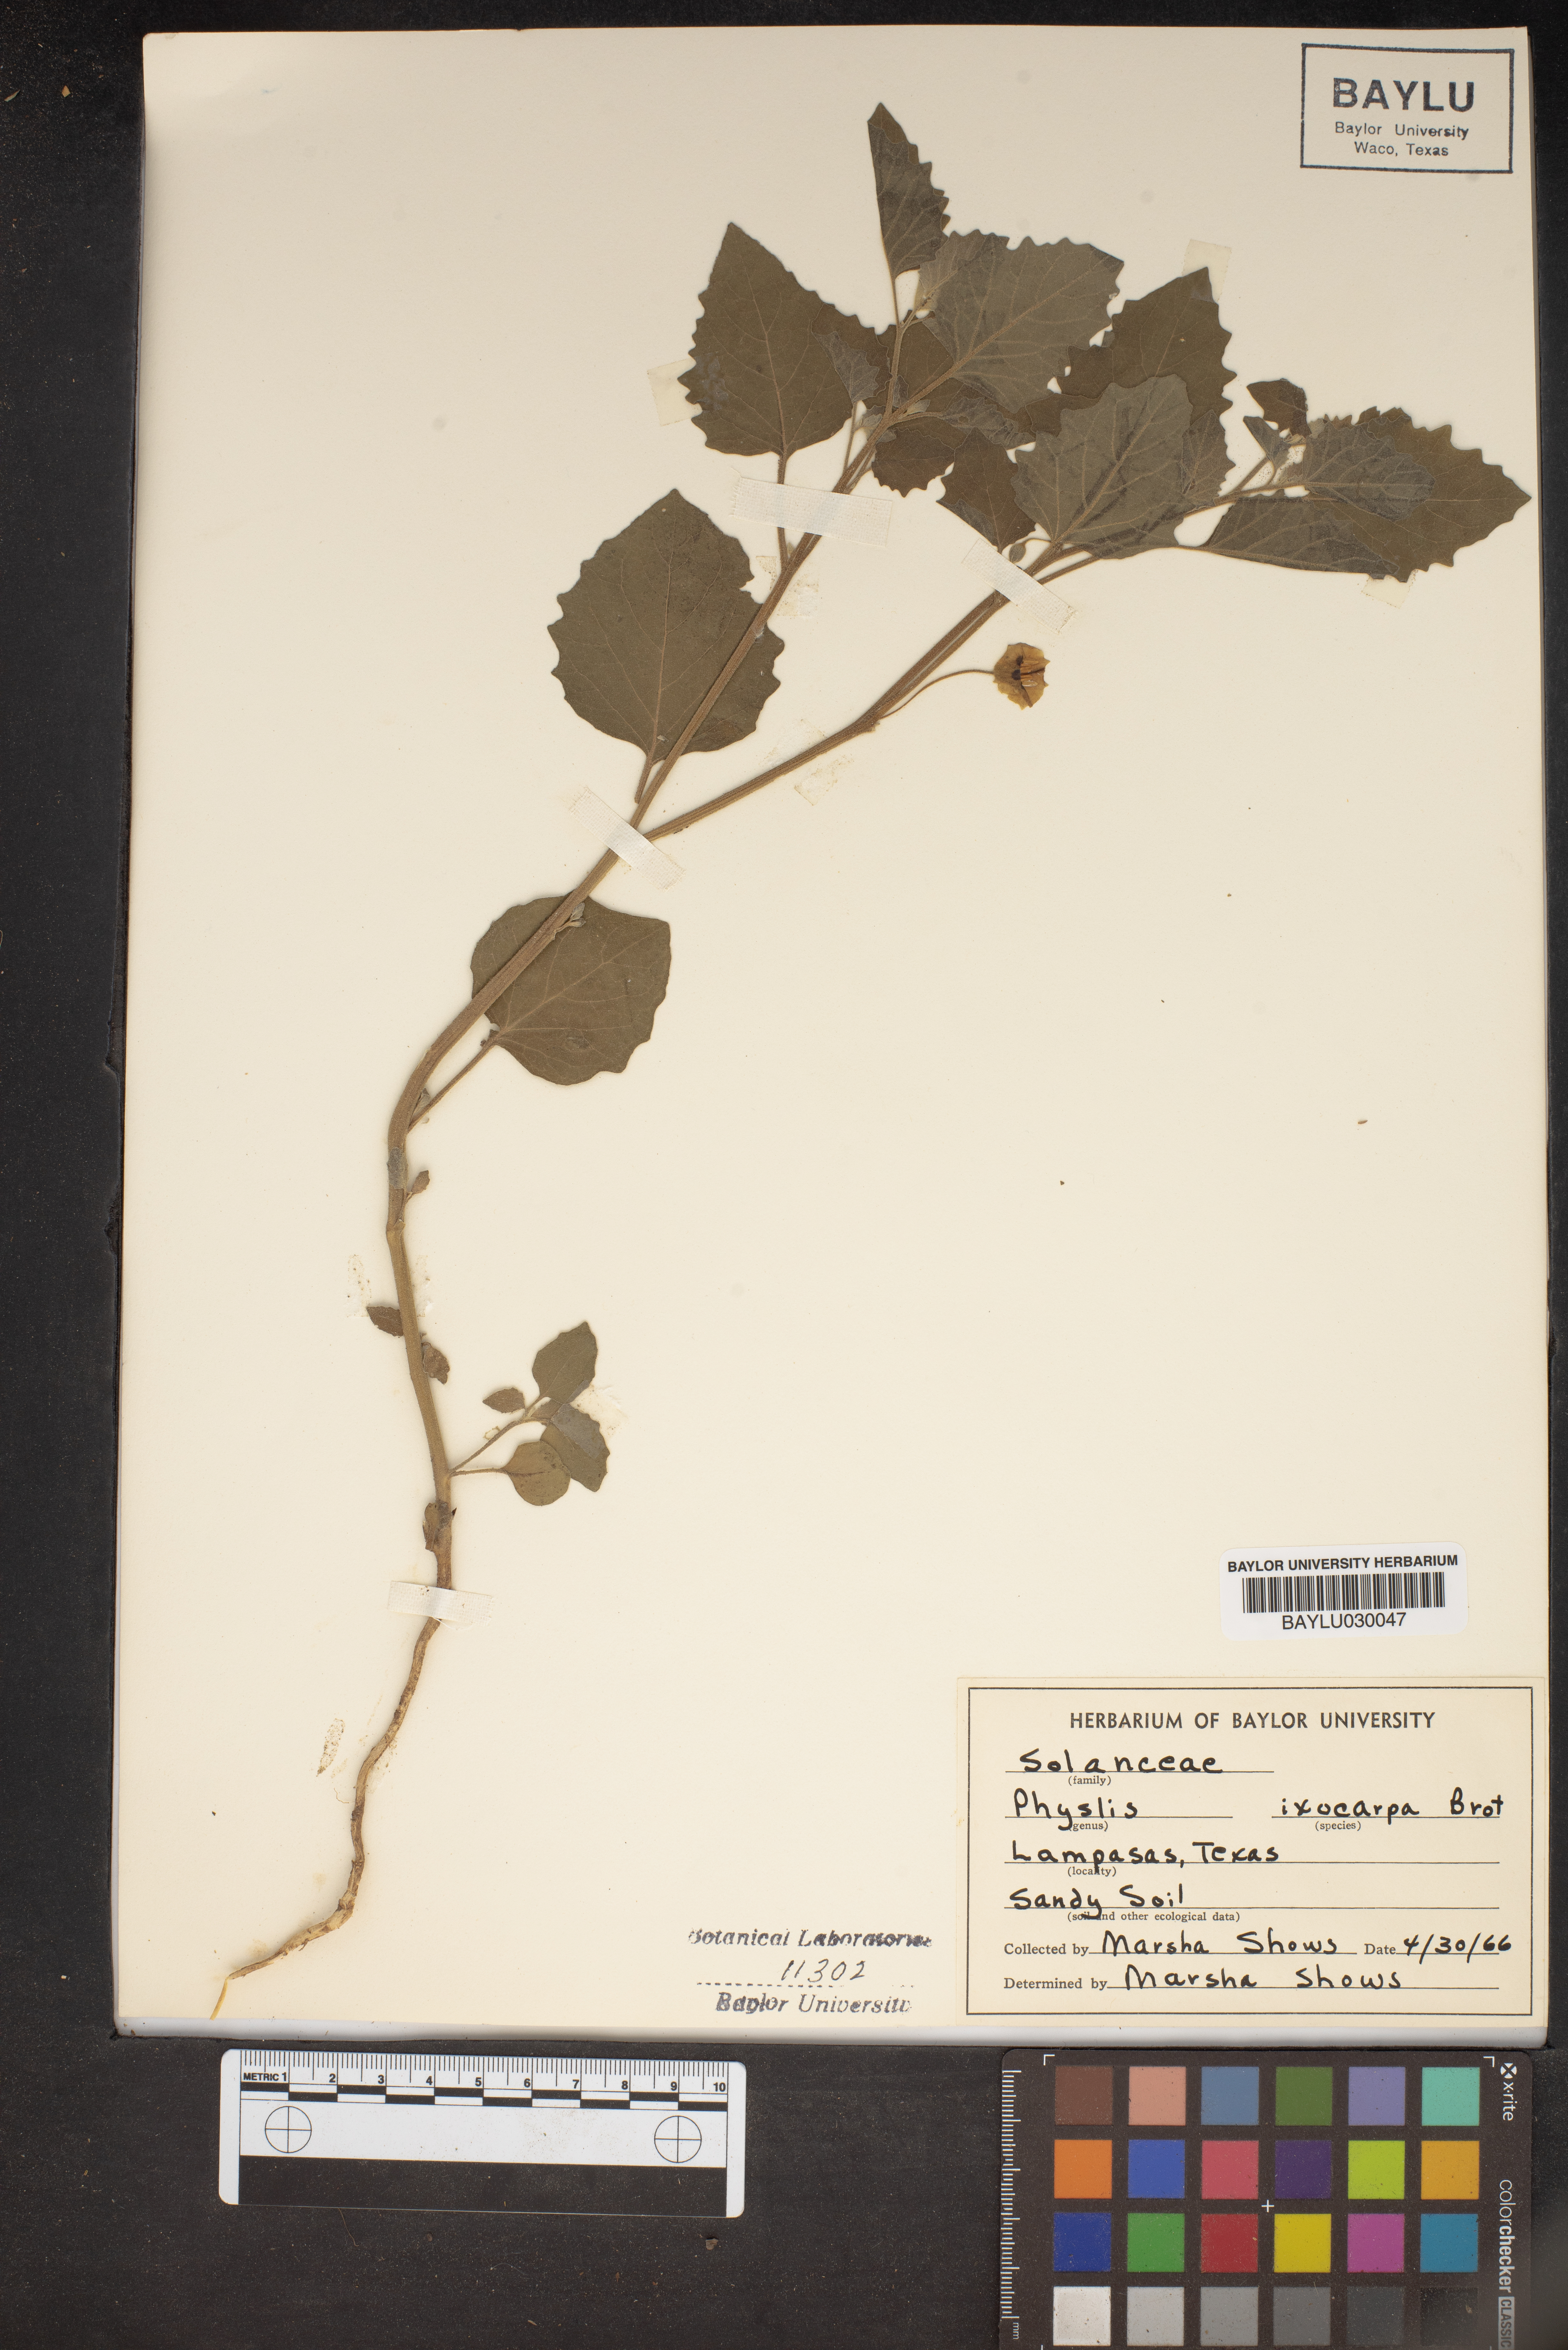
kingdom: Plantae
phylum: Tracheophyta
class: Magnoliopsida
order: Solanales
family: Solanaceae
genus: Physalis
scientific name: Physalis
